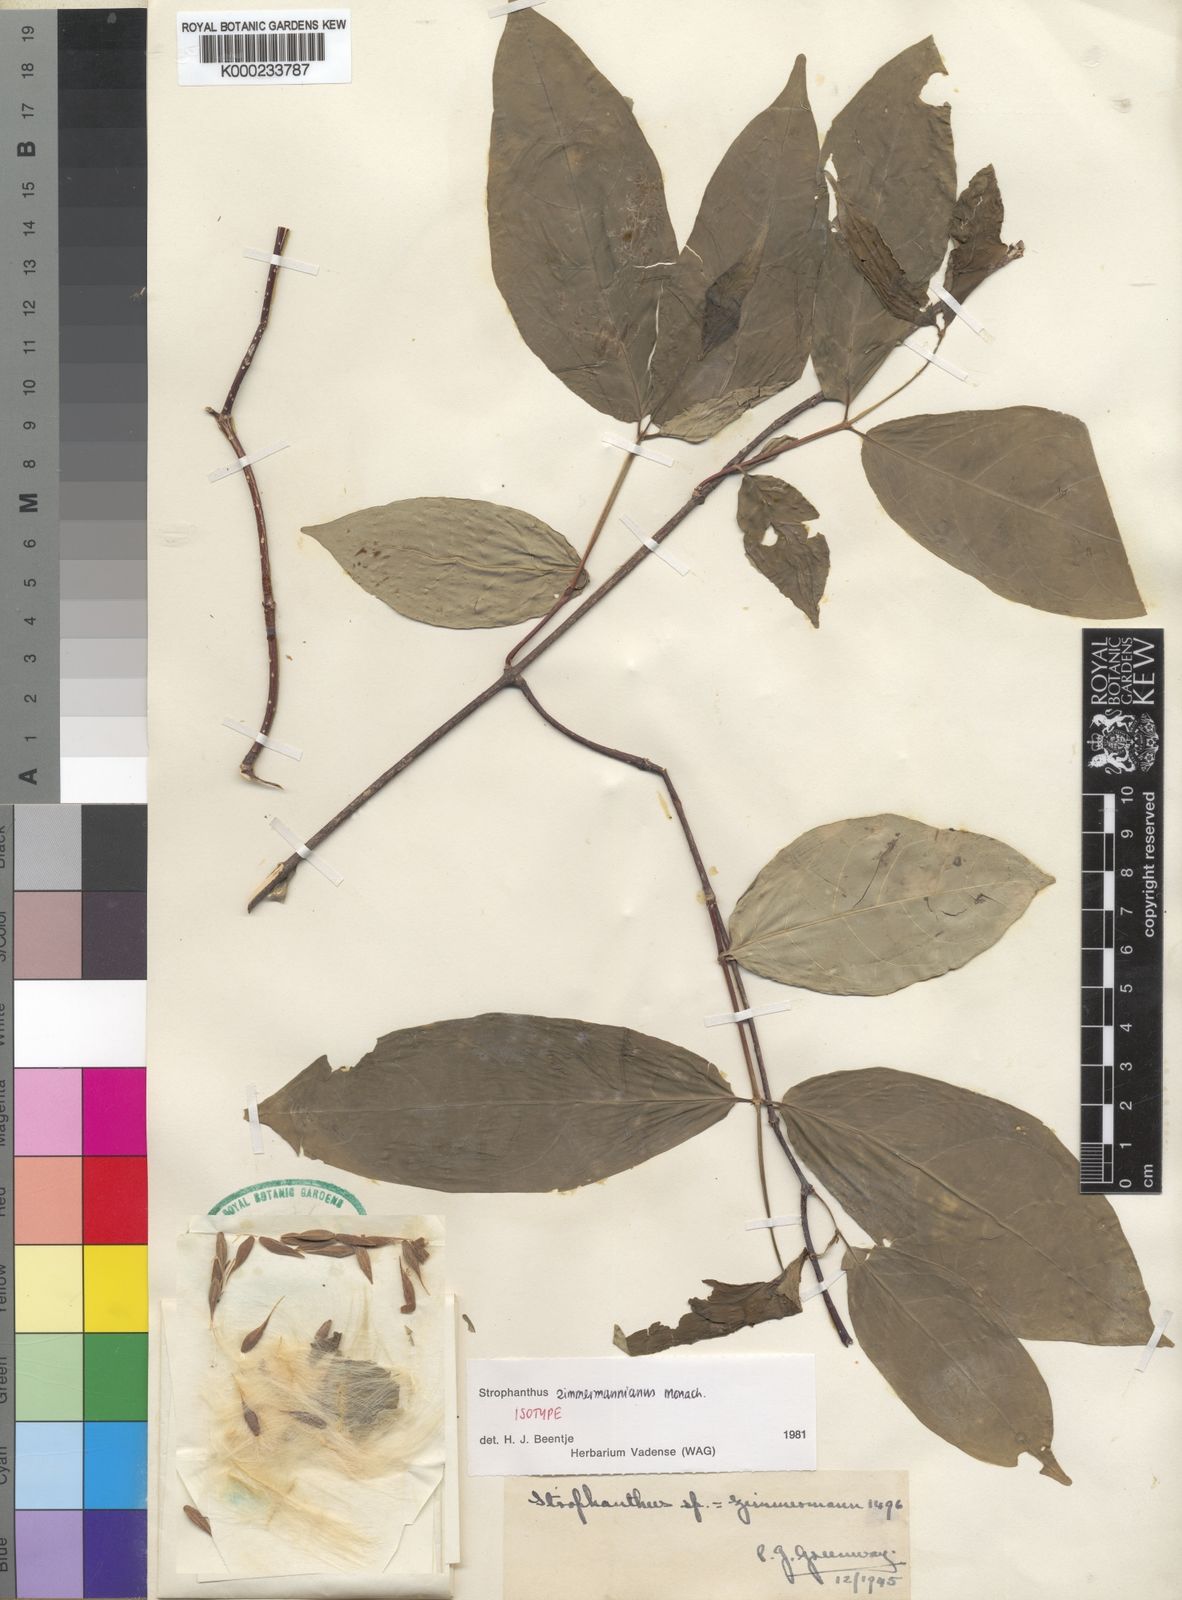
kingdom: Plantae
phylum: Tracheophyta
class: Magnoliopsida
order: Gentianales
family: Apocynaceae
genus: Strophanthus
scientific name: Strophanthus zimmermannianus
